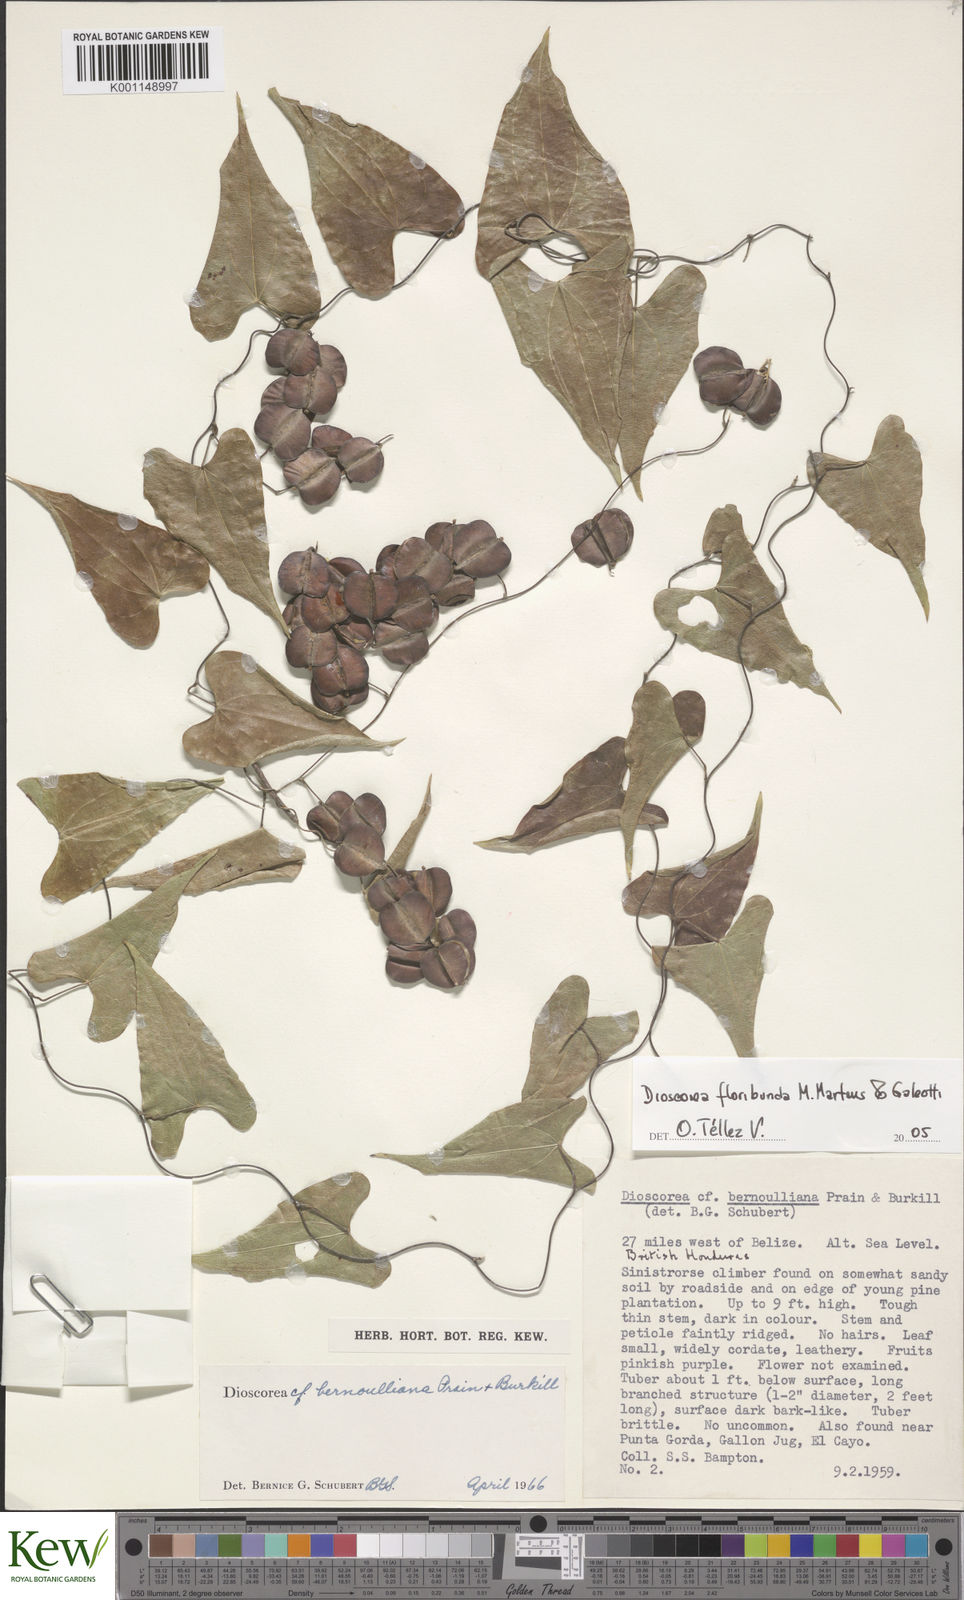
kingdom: Plantae
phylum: Tracheophyta
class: Liliopsida
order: Dioscoreales
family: Dioscoreaceae
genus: Dioscorea
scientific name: Dioscorea floribunda
